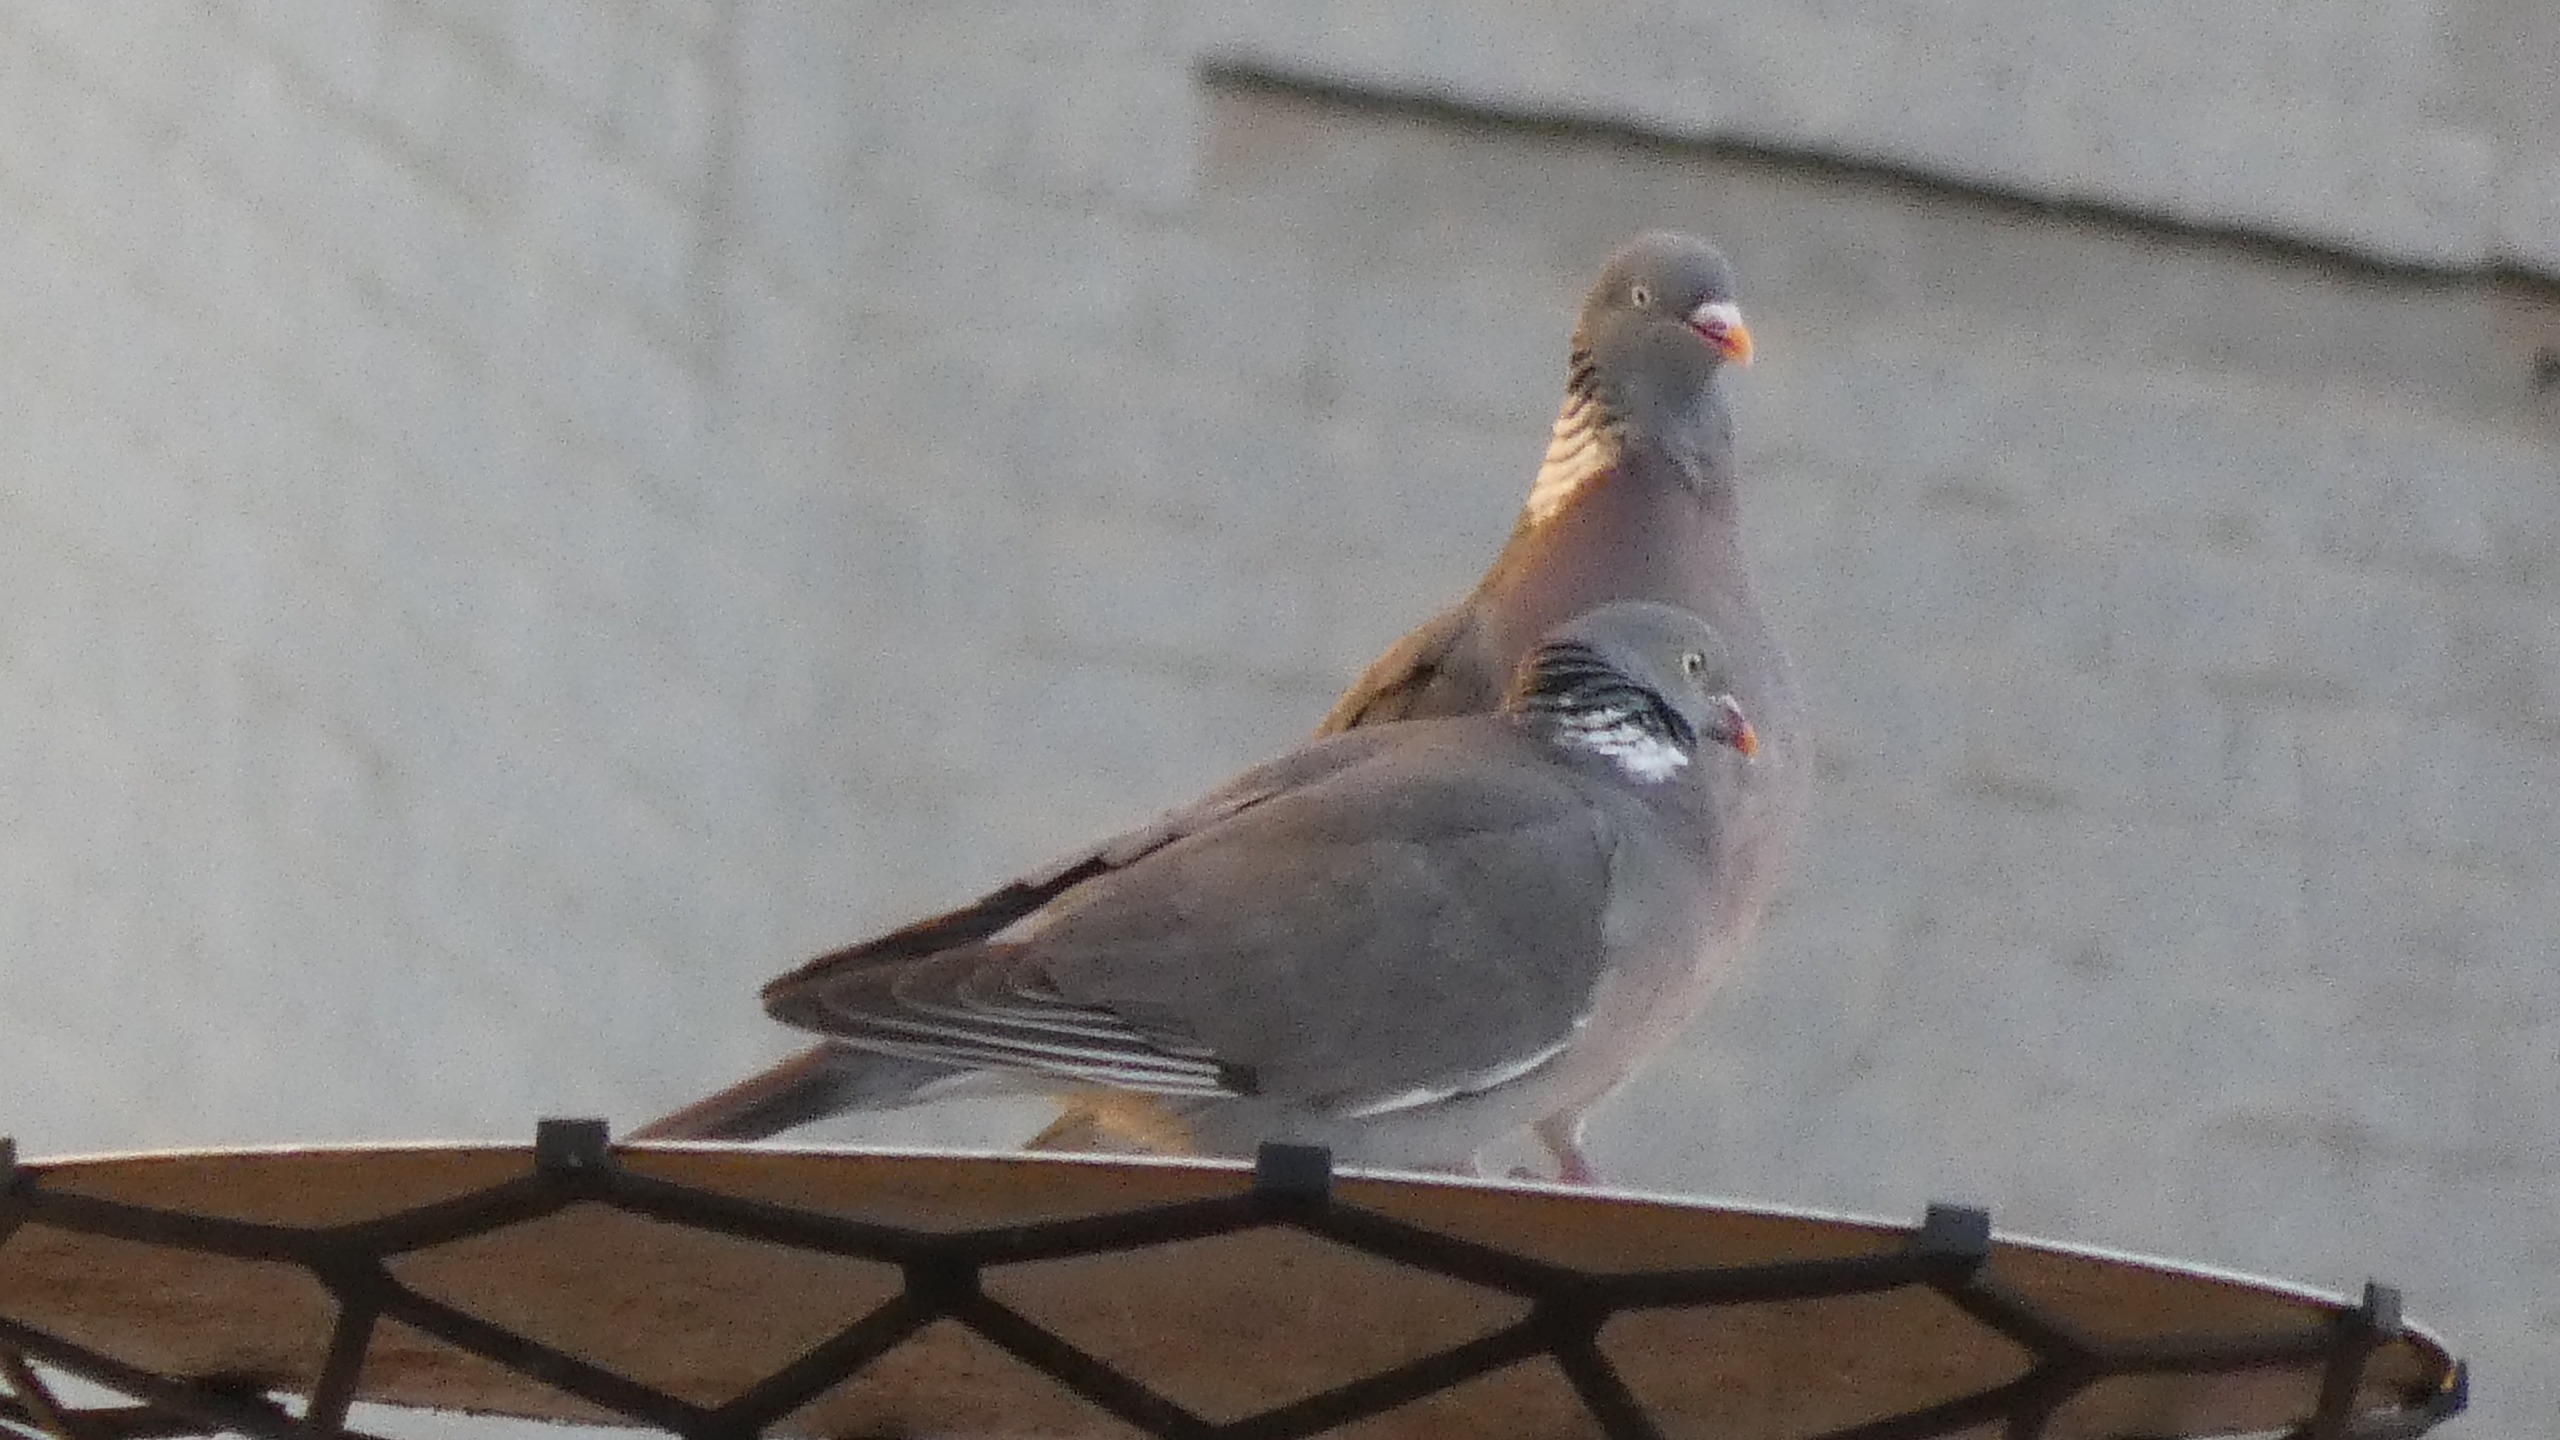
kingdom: Animalia
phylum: Chordata
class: Aves
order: Columbiformes
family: Columbidae
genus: Columba
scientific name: Columba palumbus
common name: Ringdue
